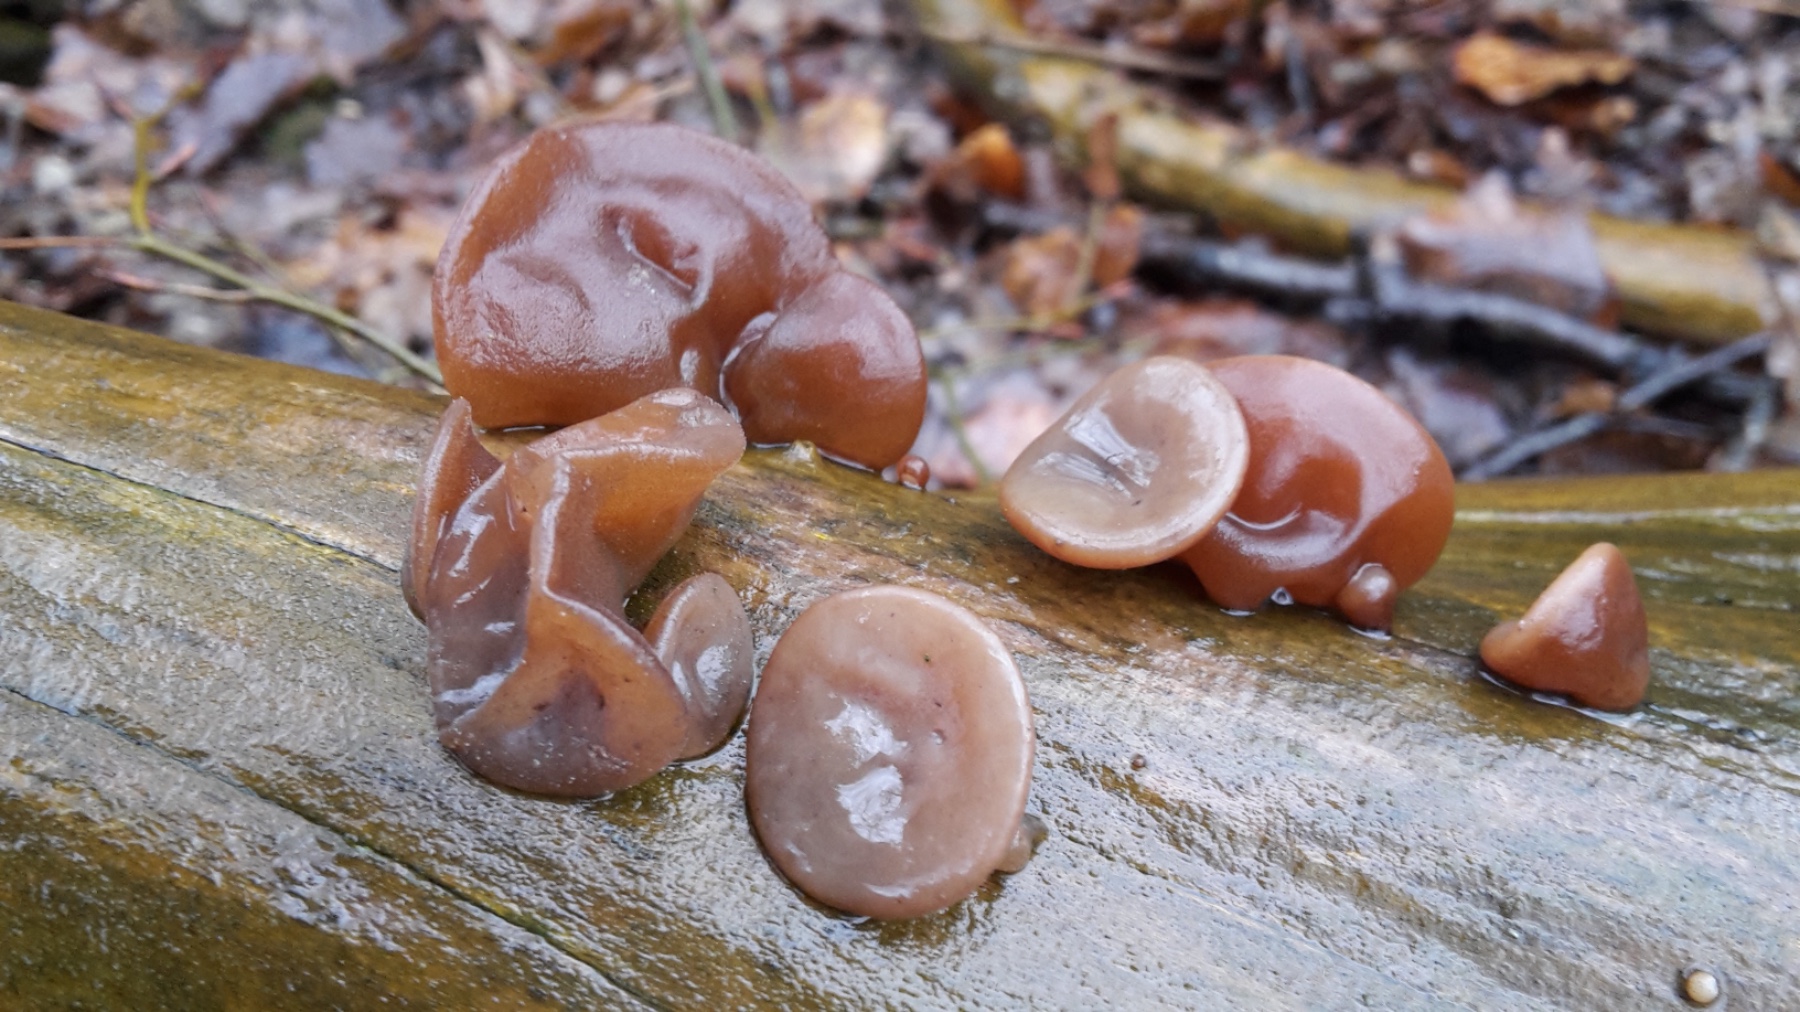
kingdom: Fungi
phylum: Basidiomycota
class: Agaricomycetes
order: Auriculariales
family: Auriculariaceae
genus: Auricularia
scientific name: Auricularia auricula-judae
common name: almindelig judasøre
